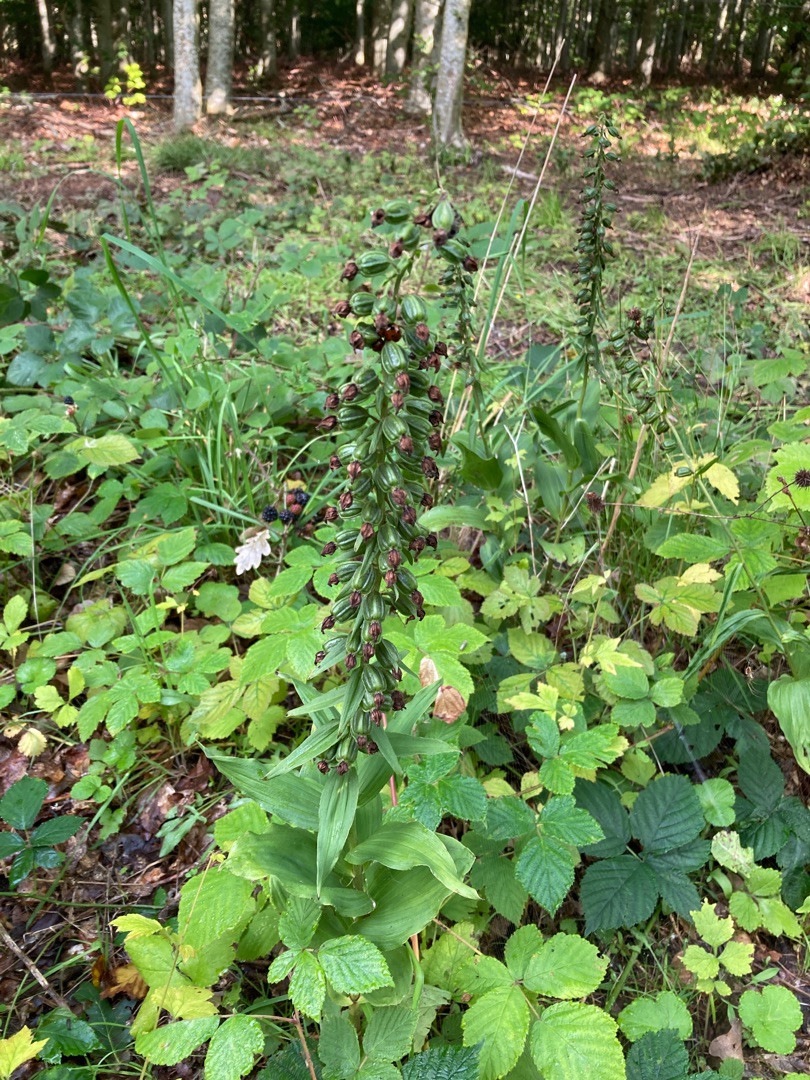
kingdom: Plantae
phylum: Tracheophyta
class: Liliopsida
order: Asparagales
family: Orchidaceae
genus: Epipactis
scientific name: Epipactis helleborine
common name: Skov-hullæbe
